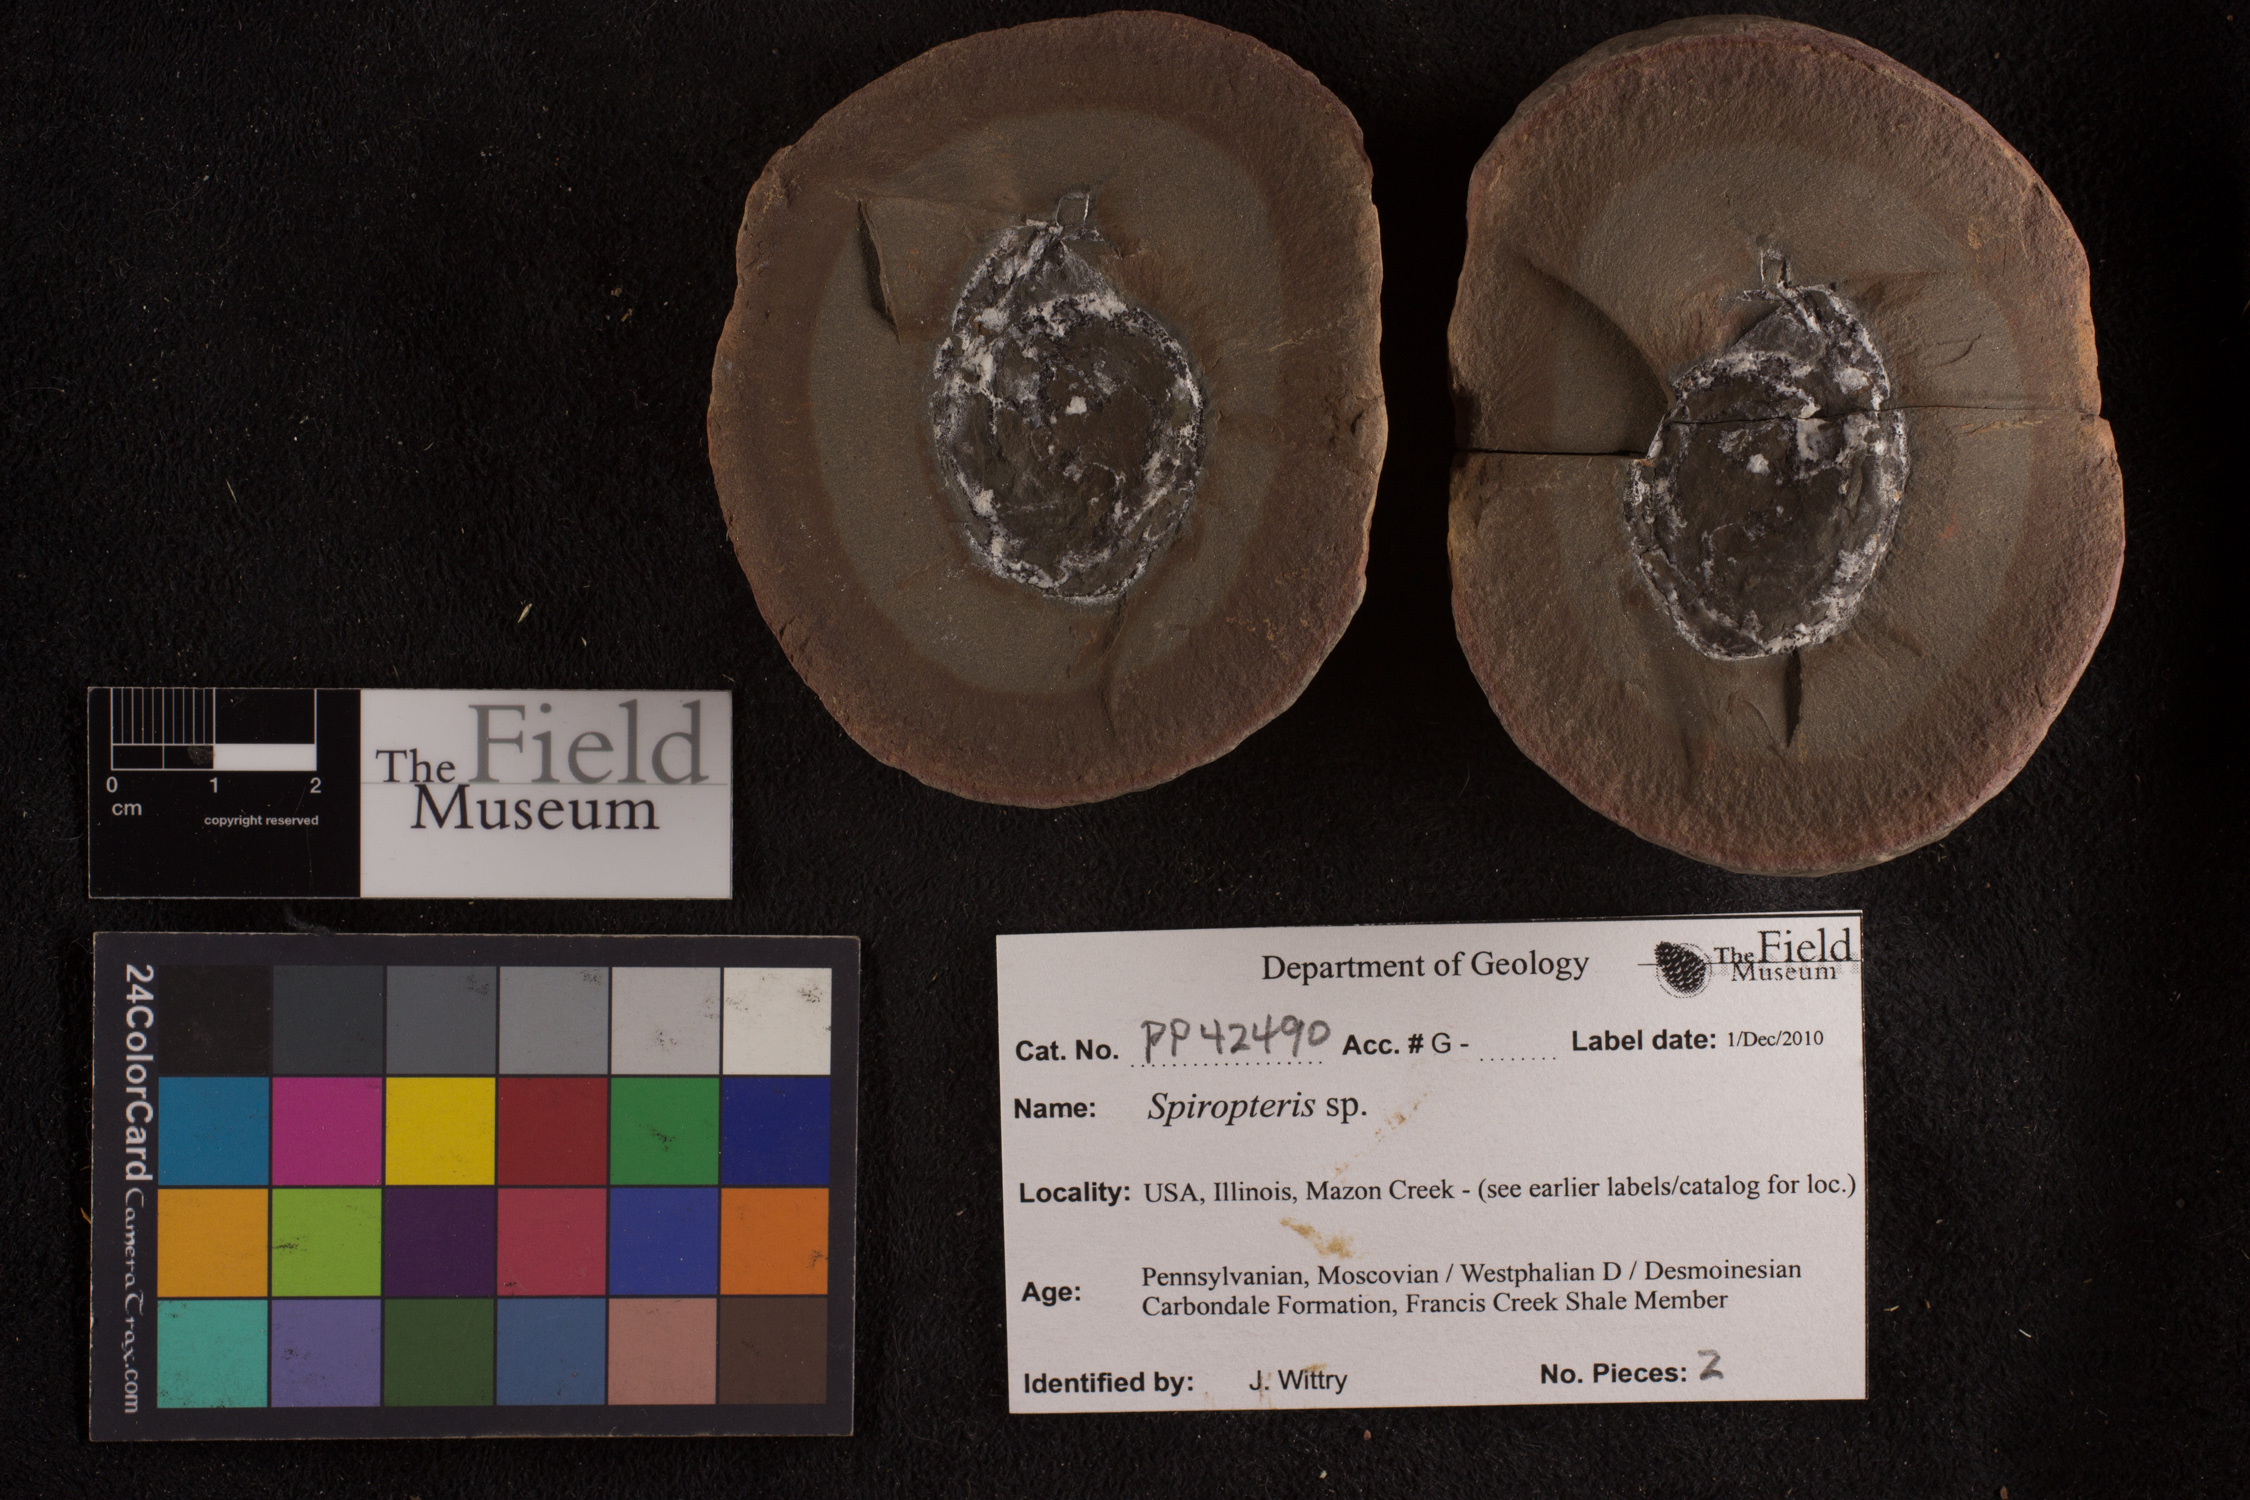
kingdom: Plantae
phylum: Tracheophyta
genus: Spiropteris
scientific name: Spiropteris
